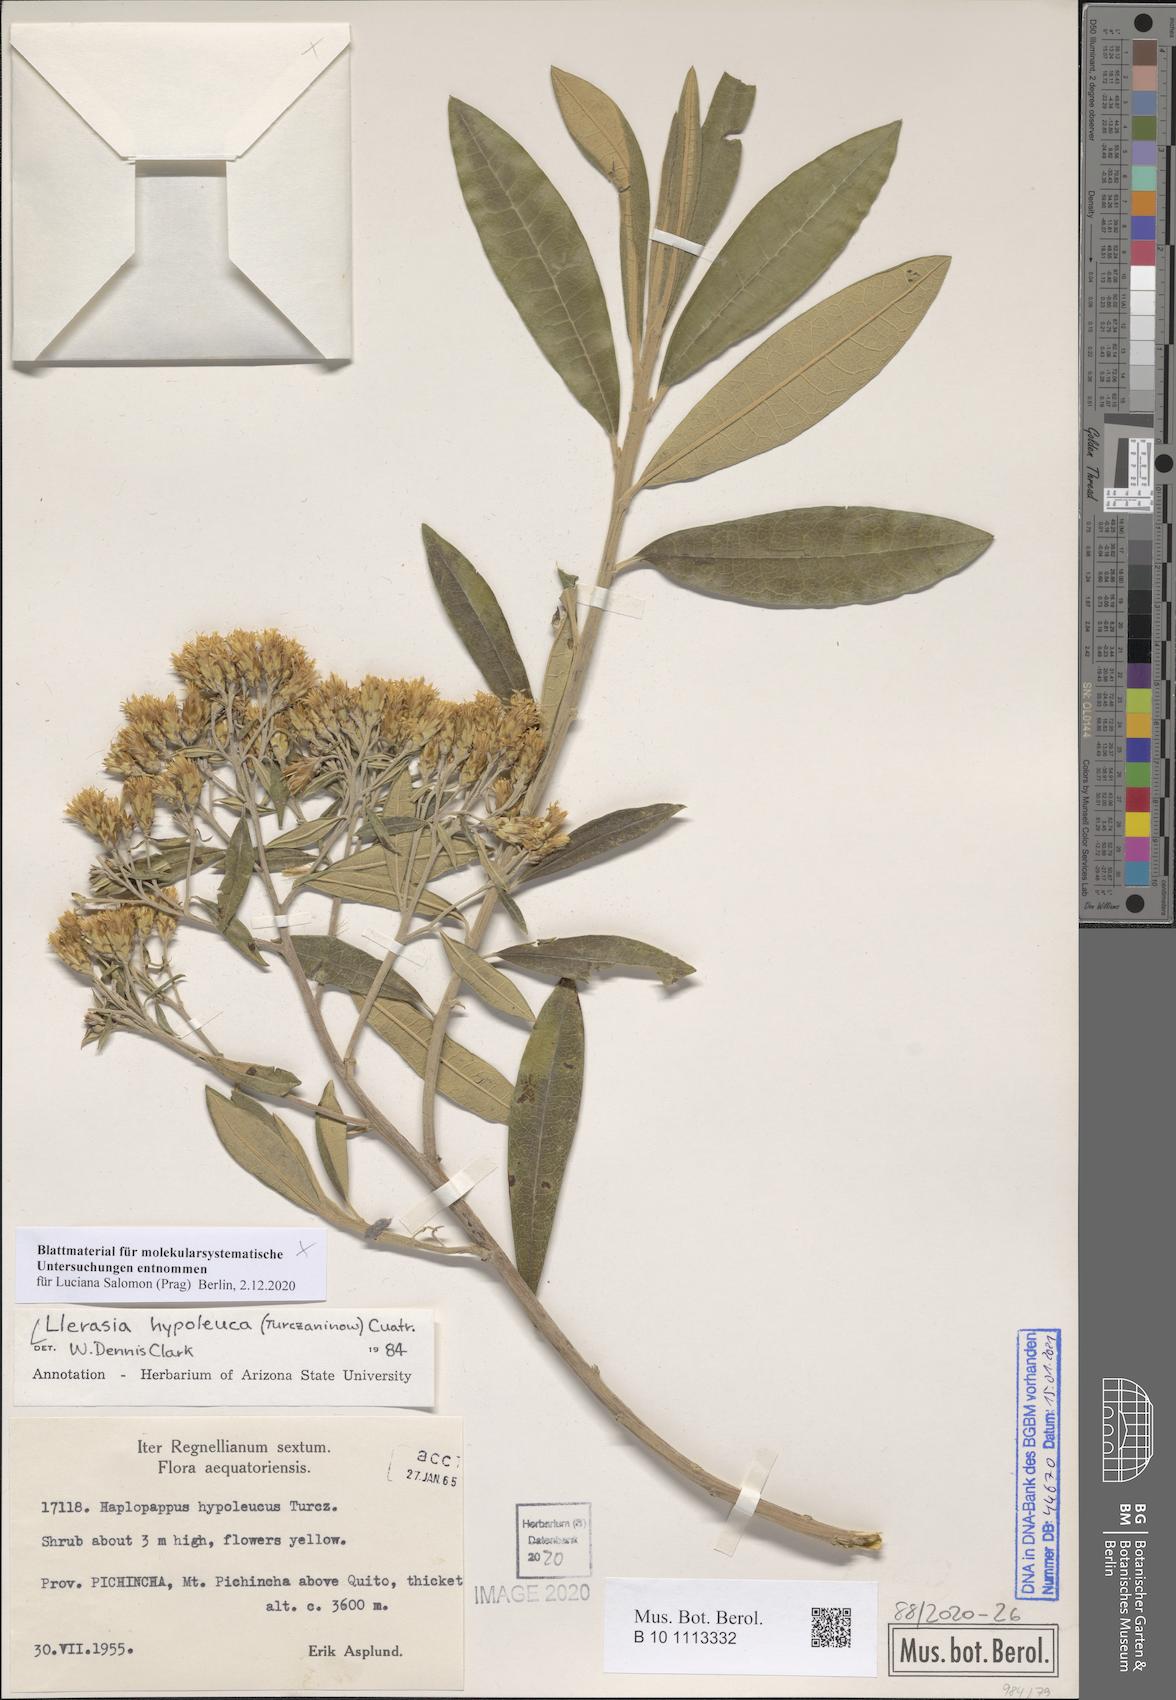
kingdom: Plantae
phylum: Tracheophyta
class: Magnoliopsida
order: Asterales
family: Asteraceae
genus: Llerasia
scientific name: Llerasia hypoleuca
